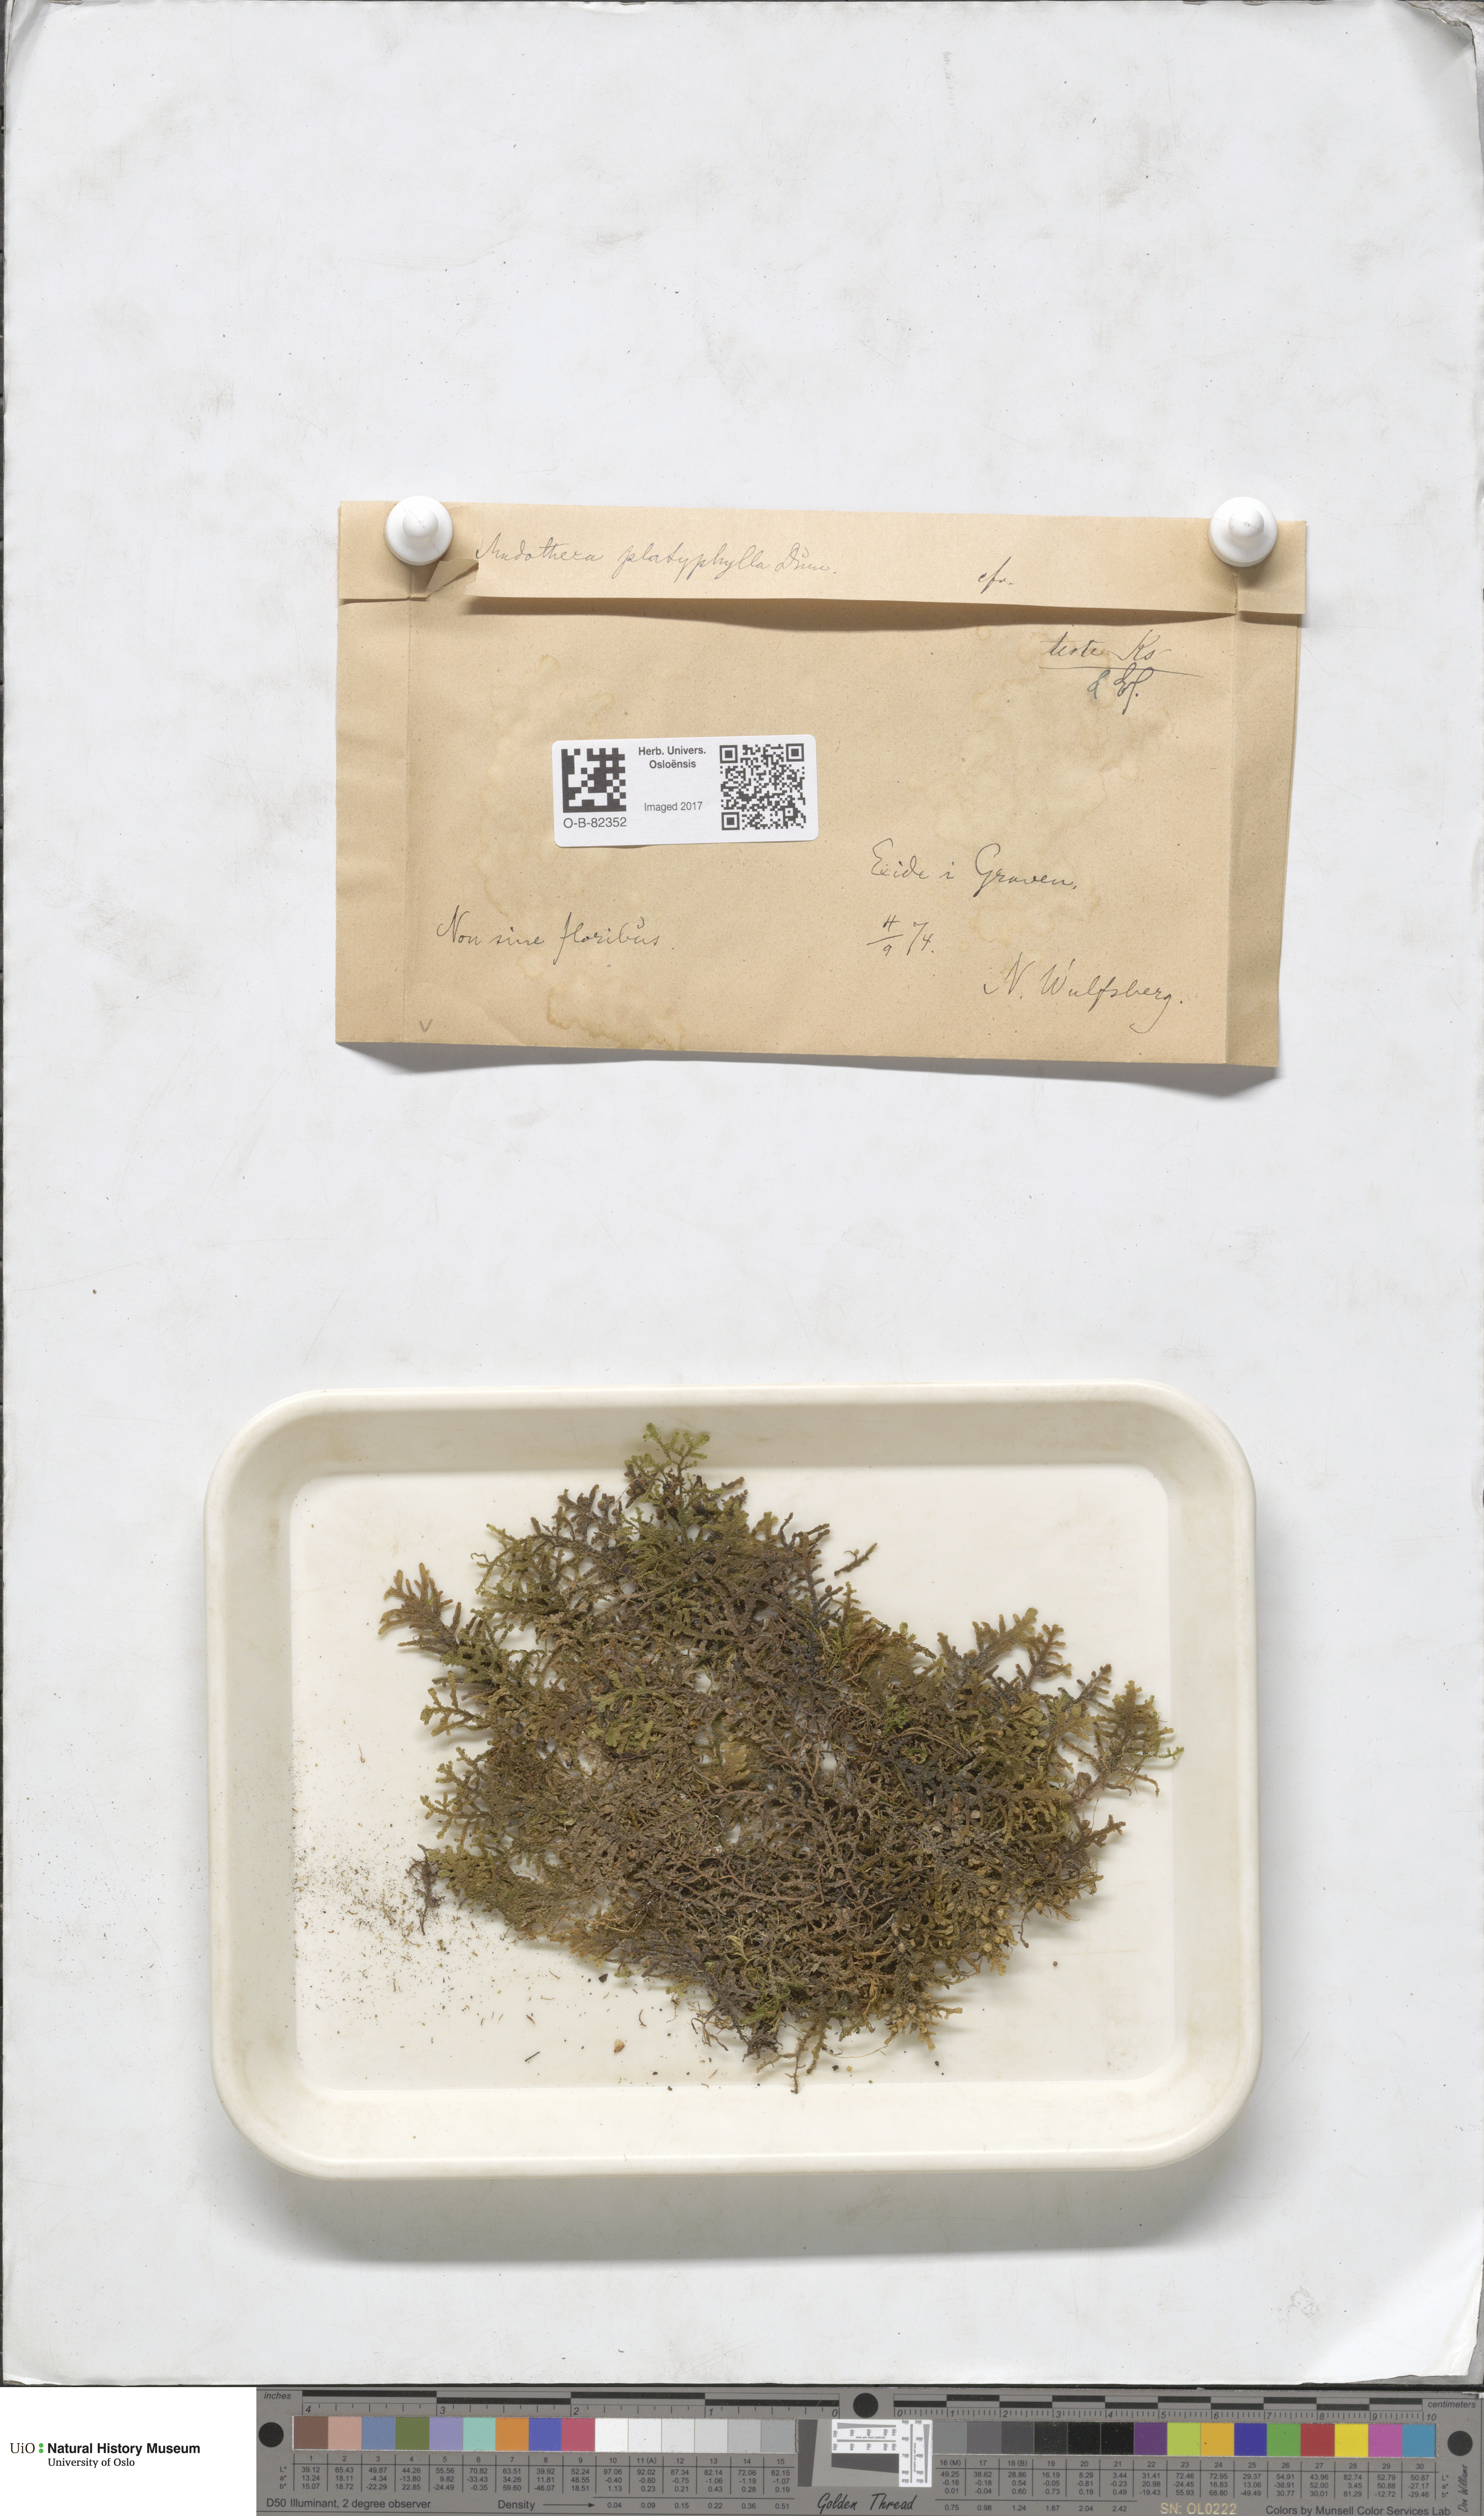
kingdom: Plantae
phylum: Marchantiophyta
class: Jungermanniopsida
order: Porellales
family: Porellaceae
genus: Porella
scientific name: Porella platyphylla
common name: Wall scalewort
